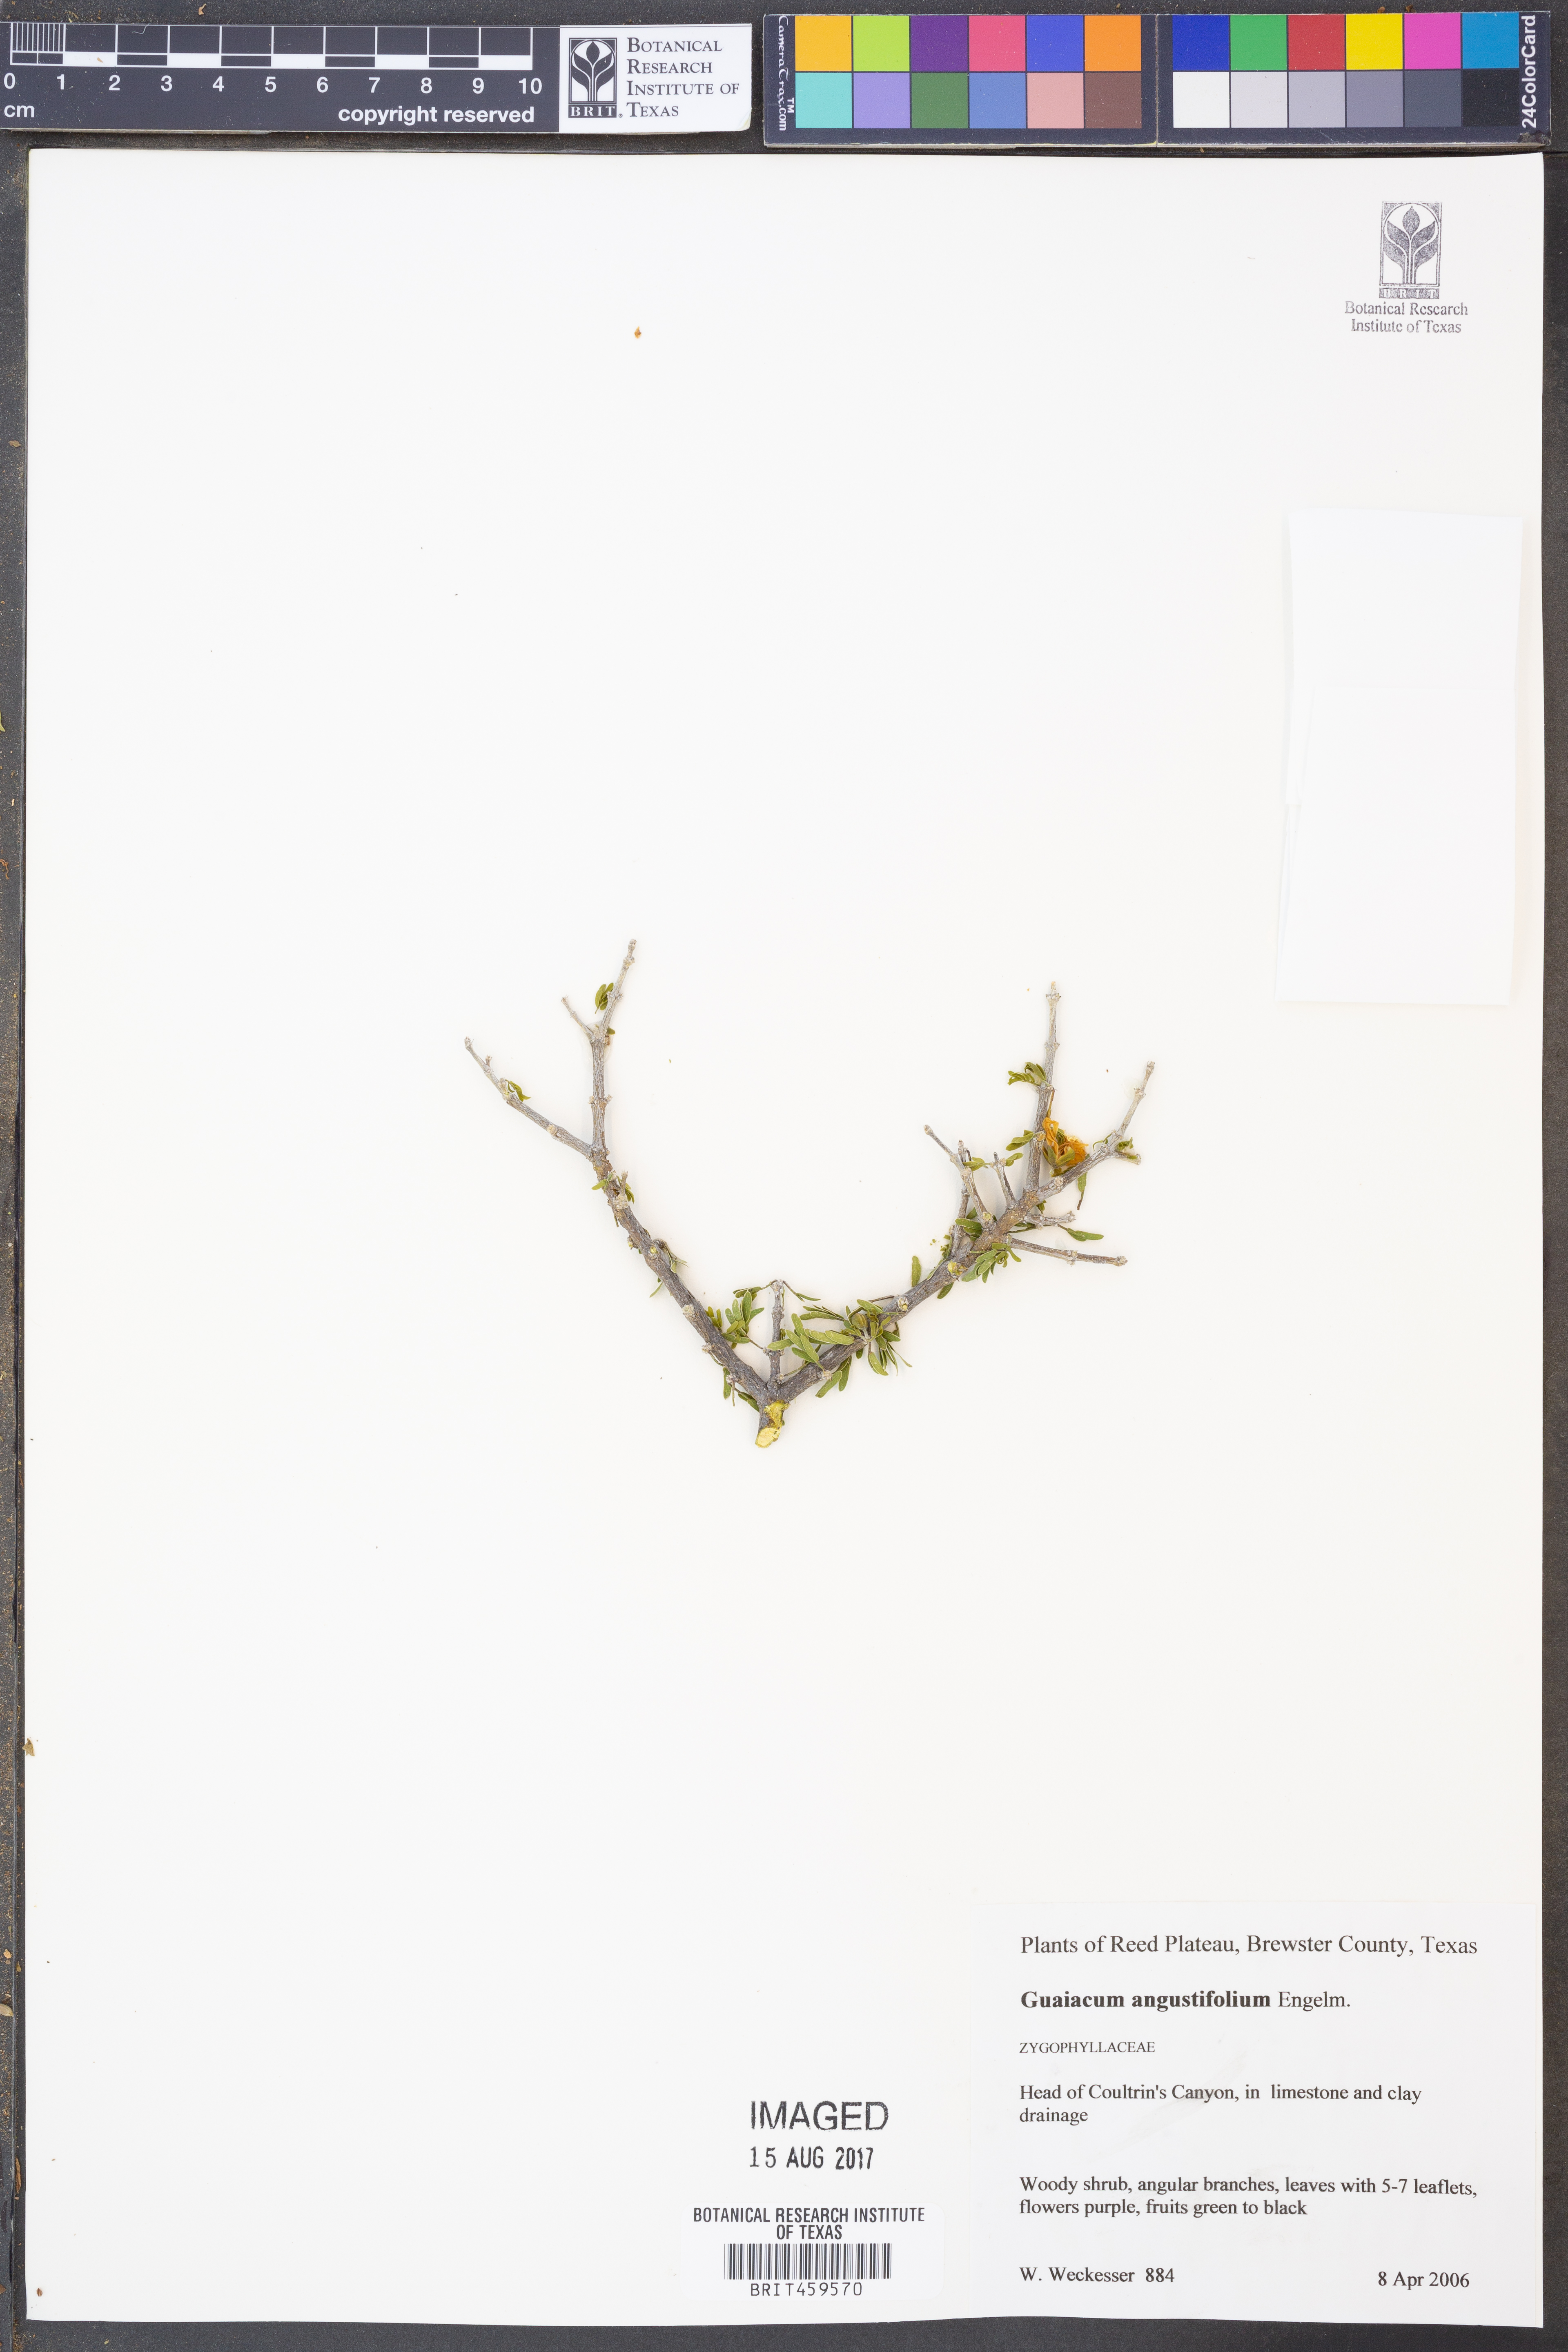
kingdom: Plantae
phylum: Tracheophyta
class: Magnoliopsida
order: Zygophyllales
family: Zygophyllaceae
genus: Porlieria
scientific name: Porlieria angustifolia
